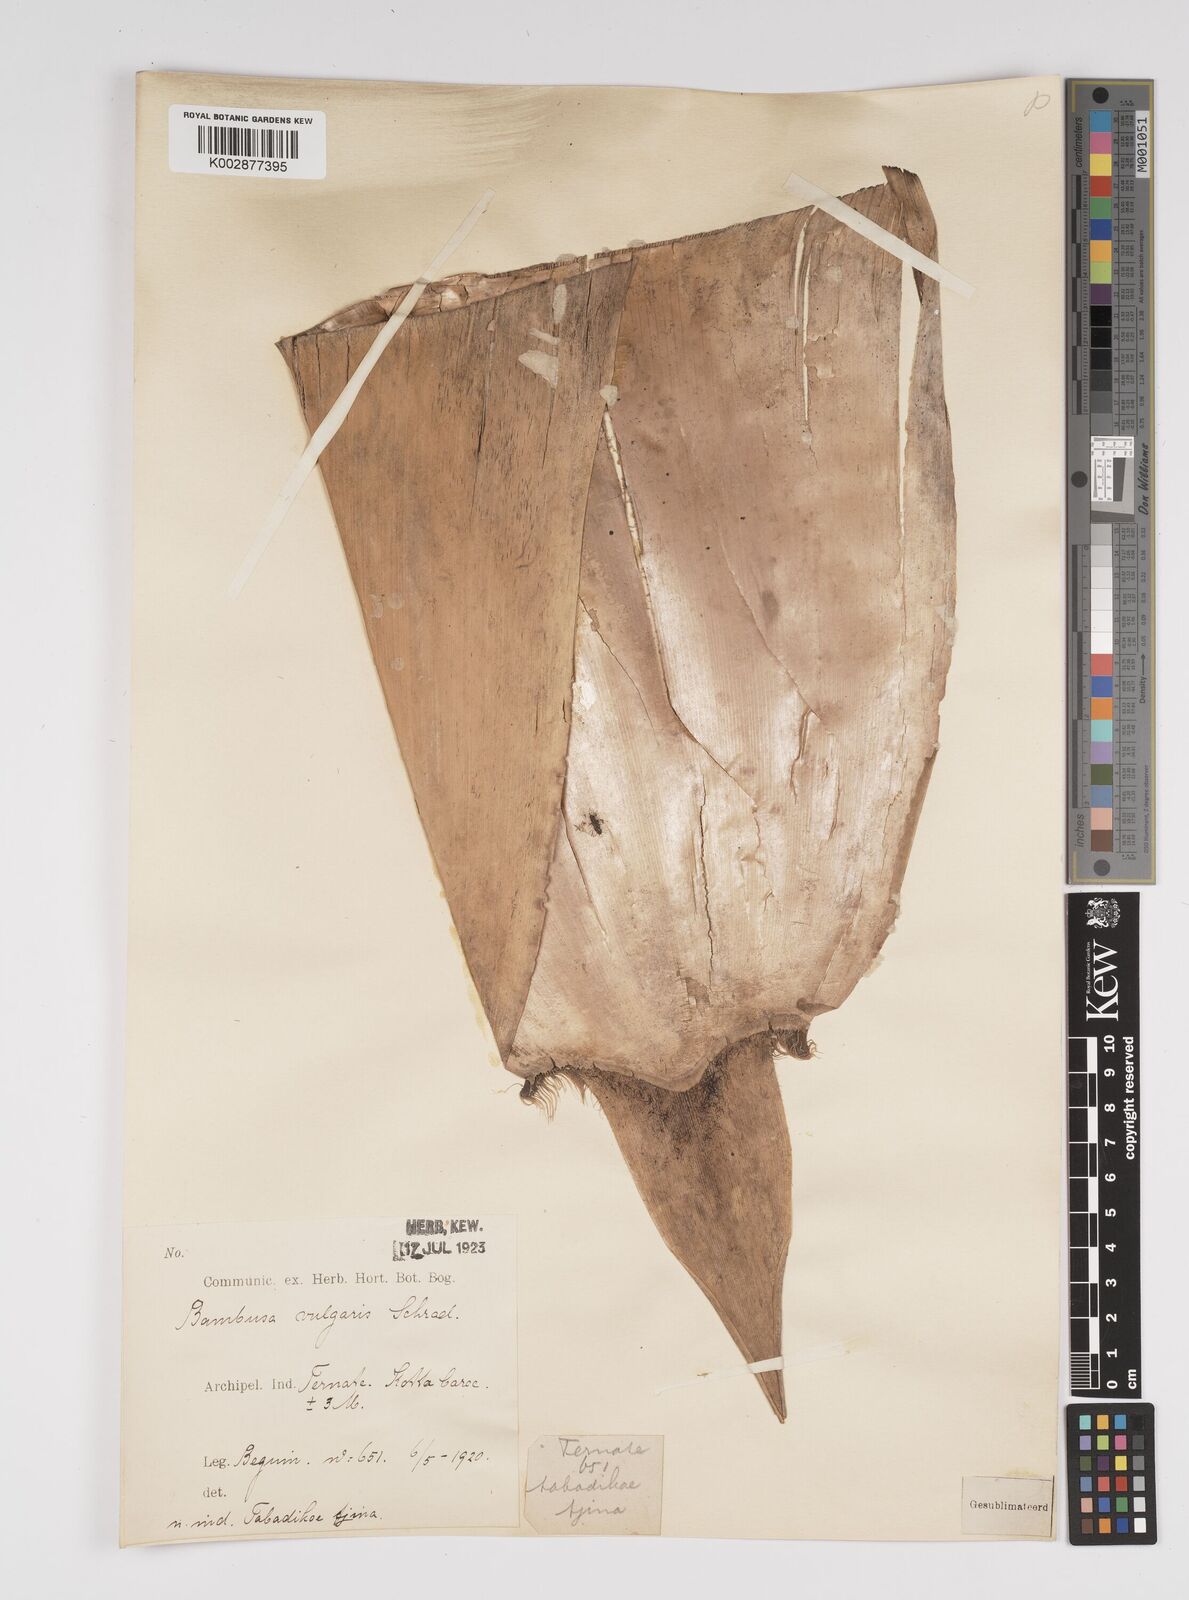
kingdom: Plantae
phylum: Tracheophyta
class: Liliopsida
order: Poales
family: Poaceae
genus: Bambusa
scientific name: Bambusa
